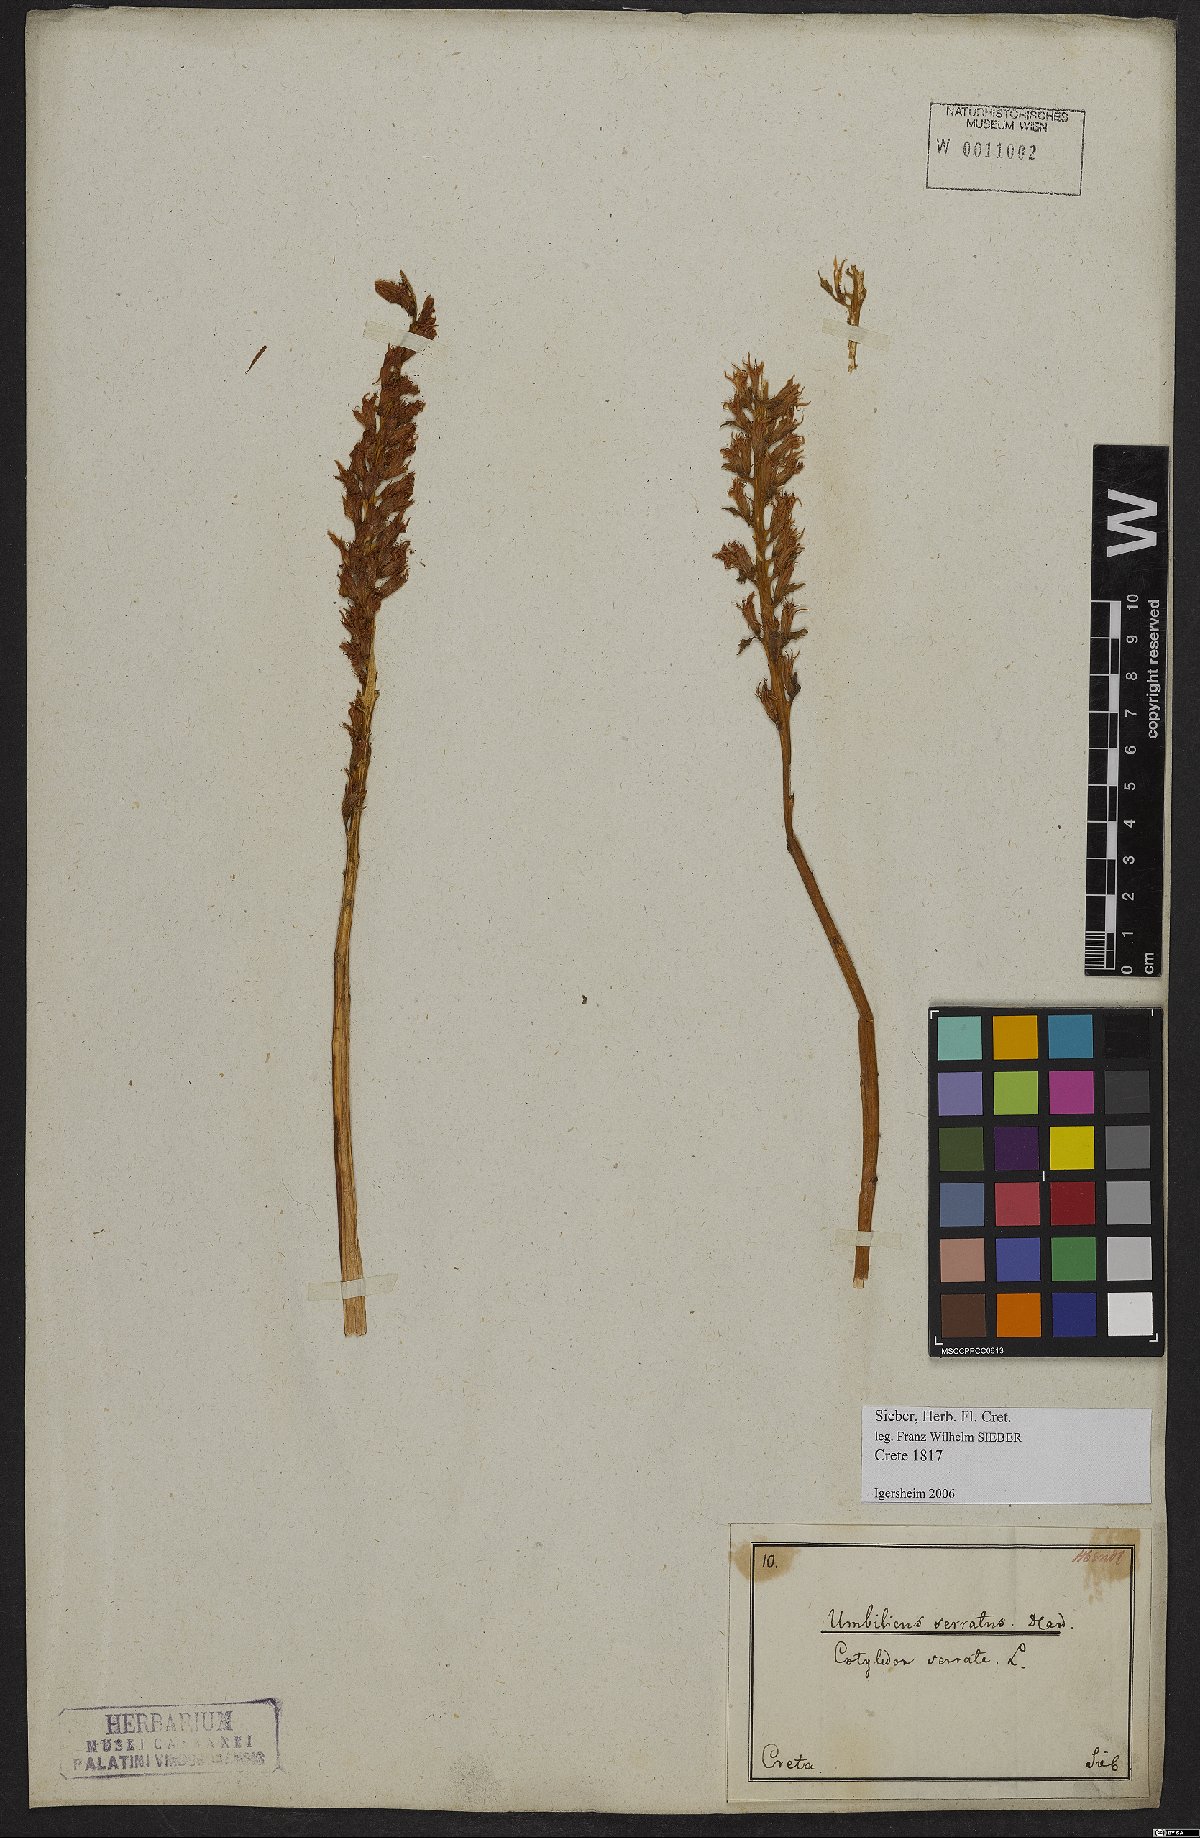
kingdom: Plantae
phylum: Tracheophyta
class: Magnoliopsida
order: Saxifragales
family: Crassulaceae
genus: Rosularia
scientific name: Rosularia serrata
